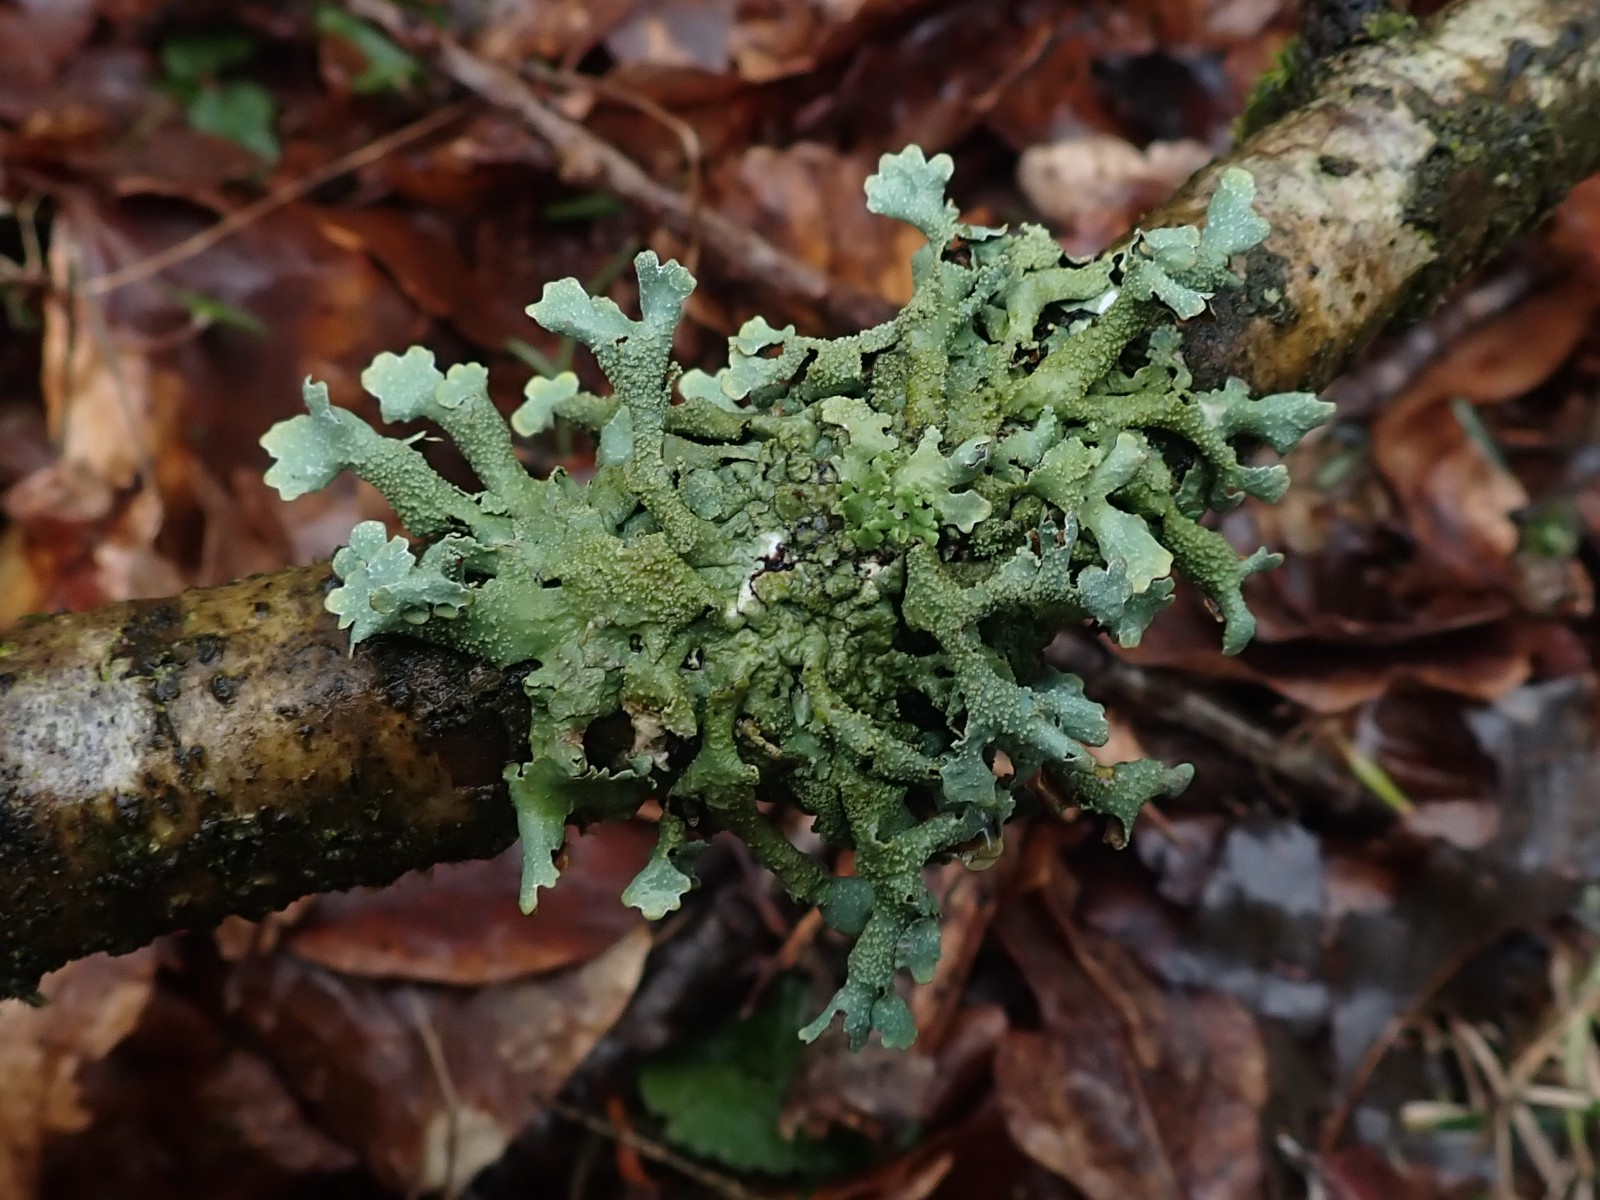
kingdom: Fungi
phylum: Ascomycota
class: Lecanoromycetes
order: Lecanorales
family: Parmeliaceae
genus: Parmelia
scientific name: Parmelia submontana
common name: langlobet skållav
